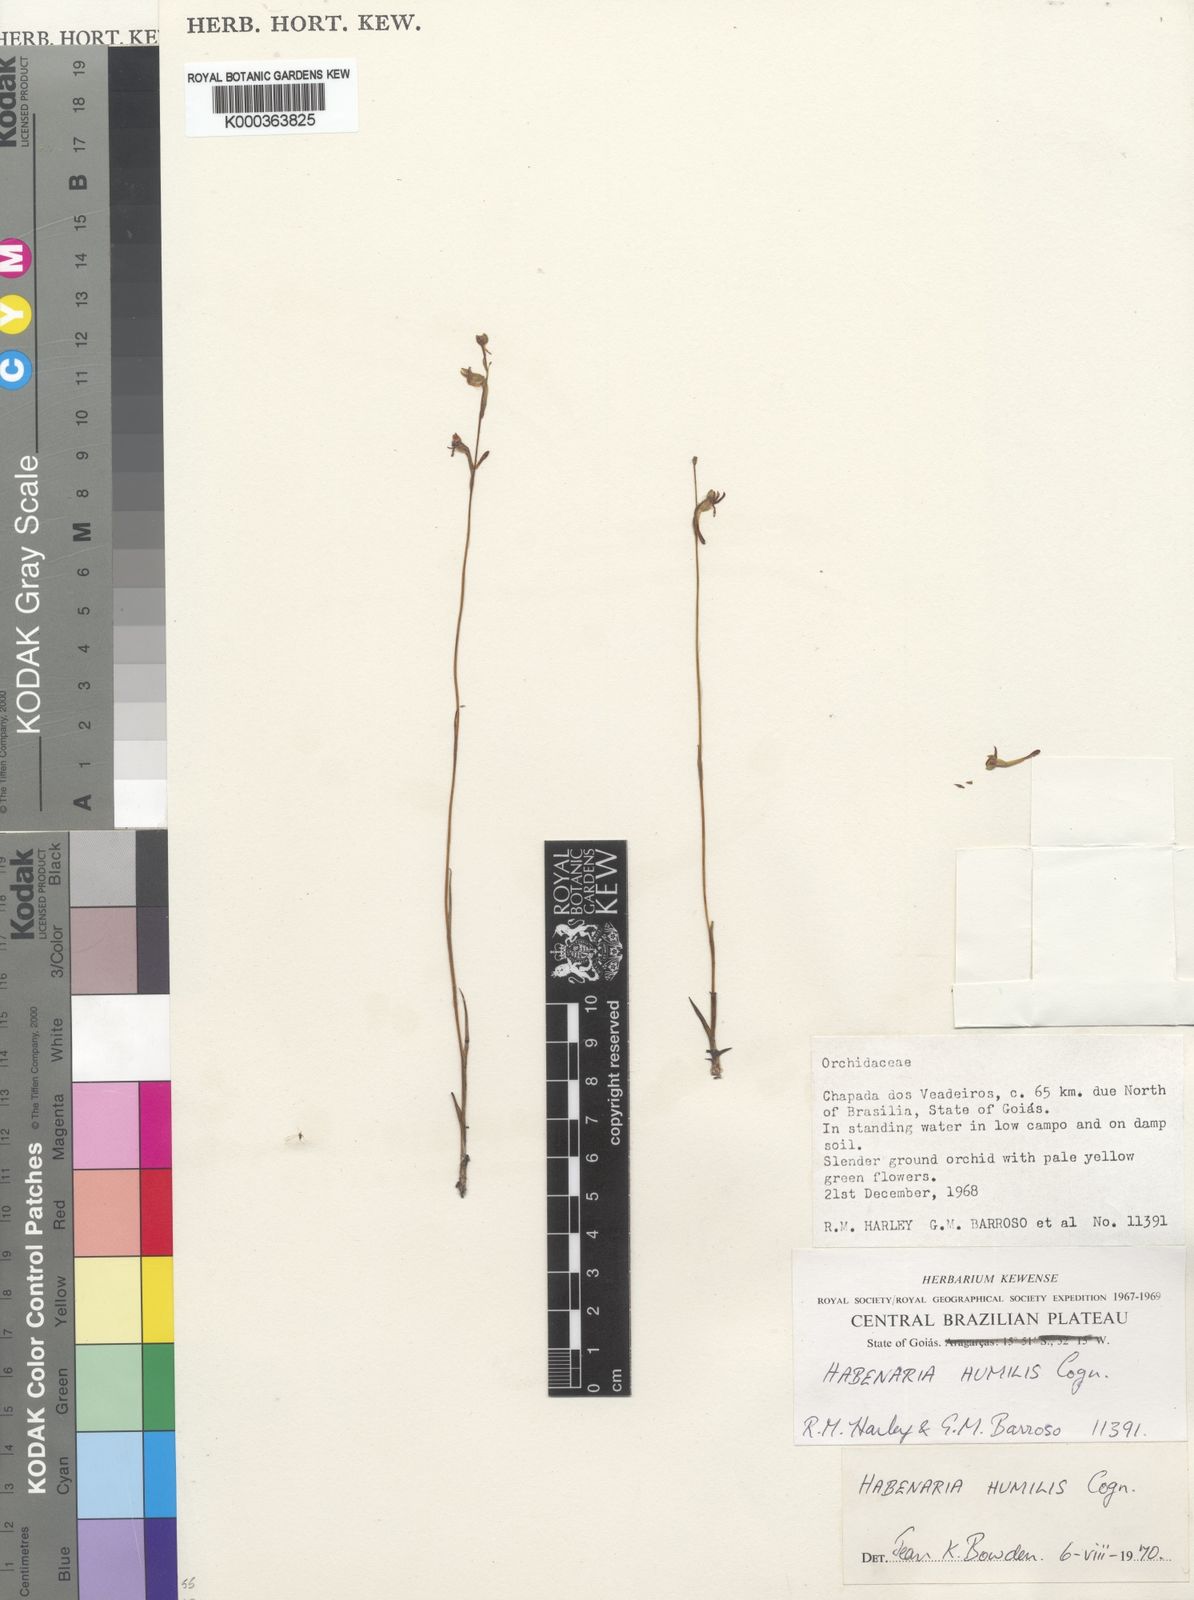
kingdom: Plantae
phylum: Tracheophyta
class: Liliopsida
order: Asparagales
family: Orchidaceae
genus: Habenaria
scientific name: Habenaria campylogyna
